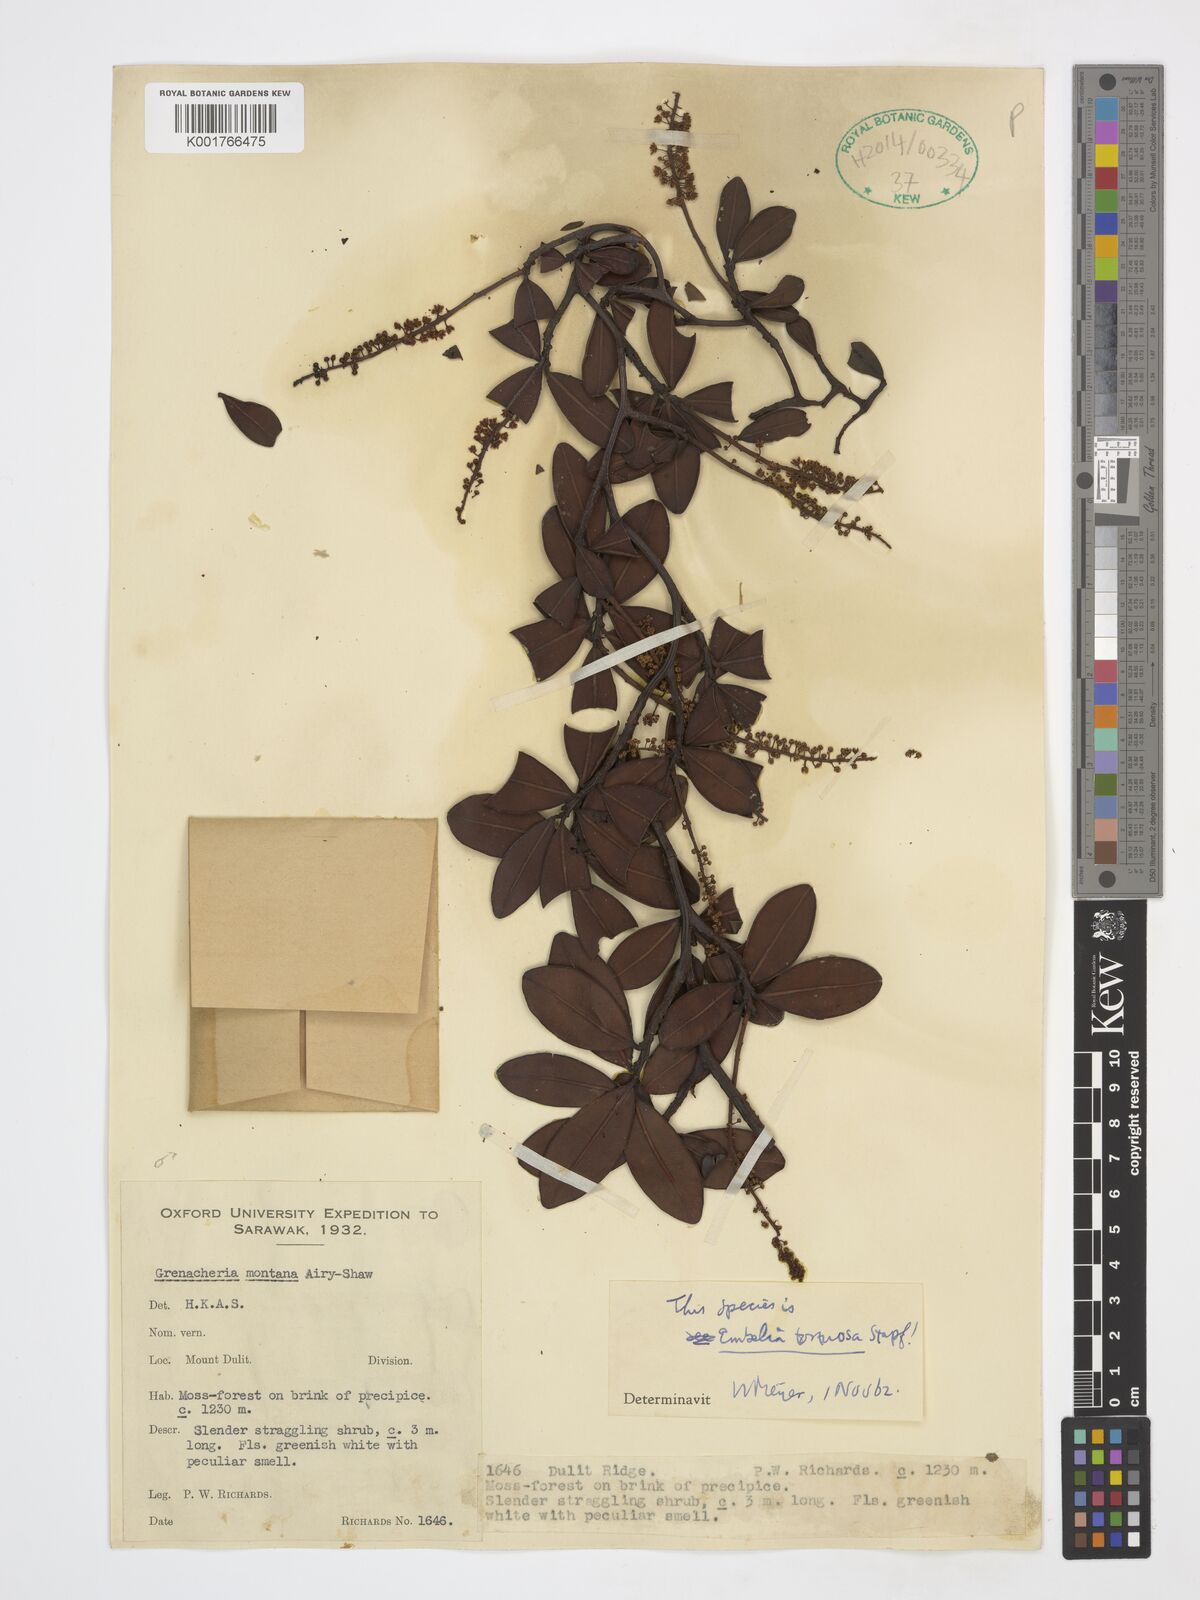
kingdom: Plantae
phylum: Tracheophyta
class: Magnoliopsida
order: Ericales
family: Primulaceae
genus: Embelia
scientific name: Embelia tortuosa
